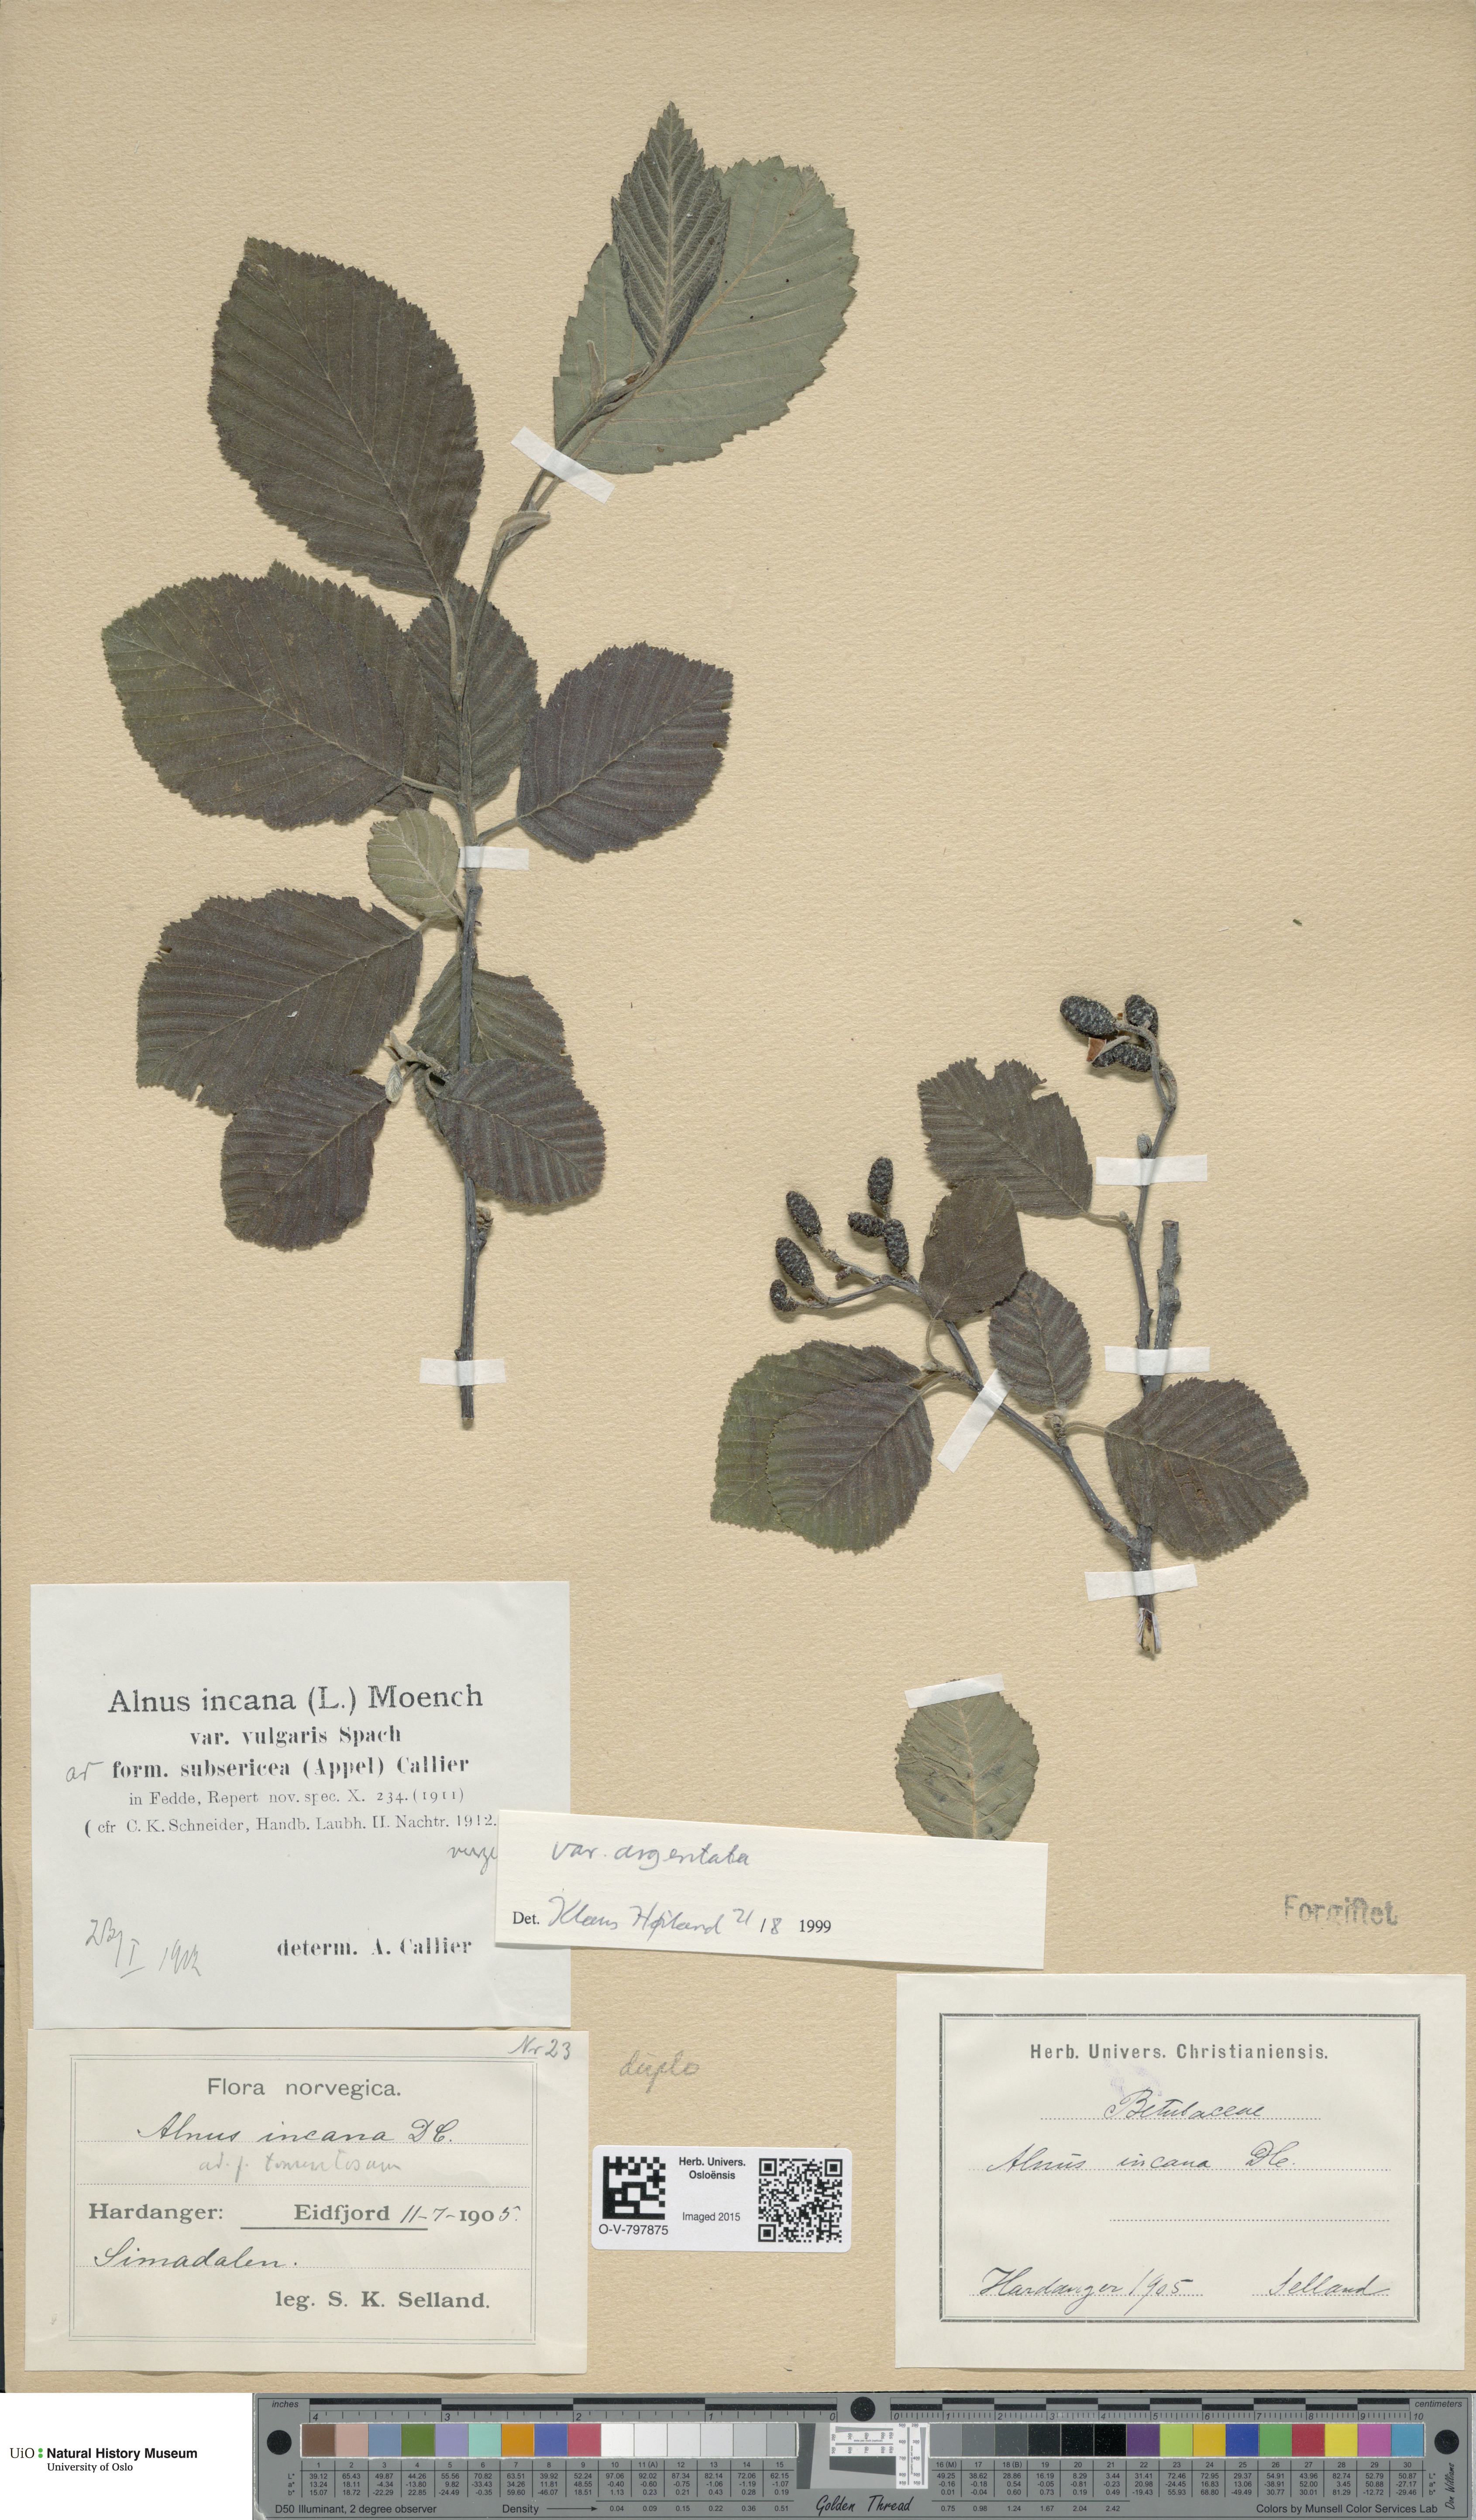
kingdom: Plantae
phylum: Tracheophyta
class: Magnoliopsida
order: Fagales
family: Betulaceae
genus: Alnus
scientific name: Alnus incana
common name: Grey alder
